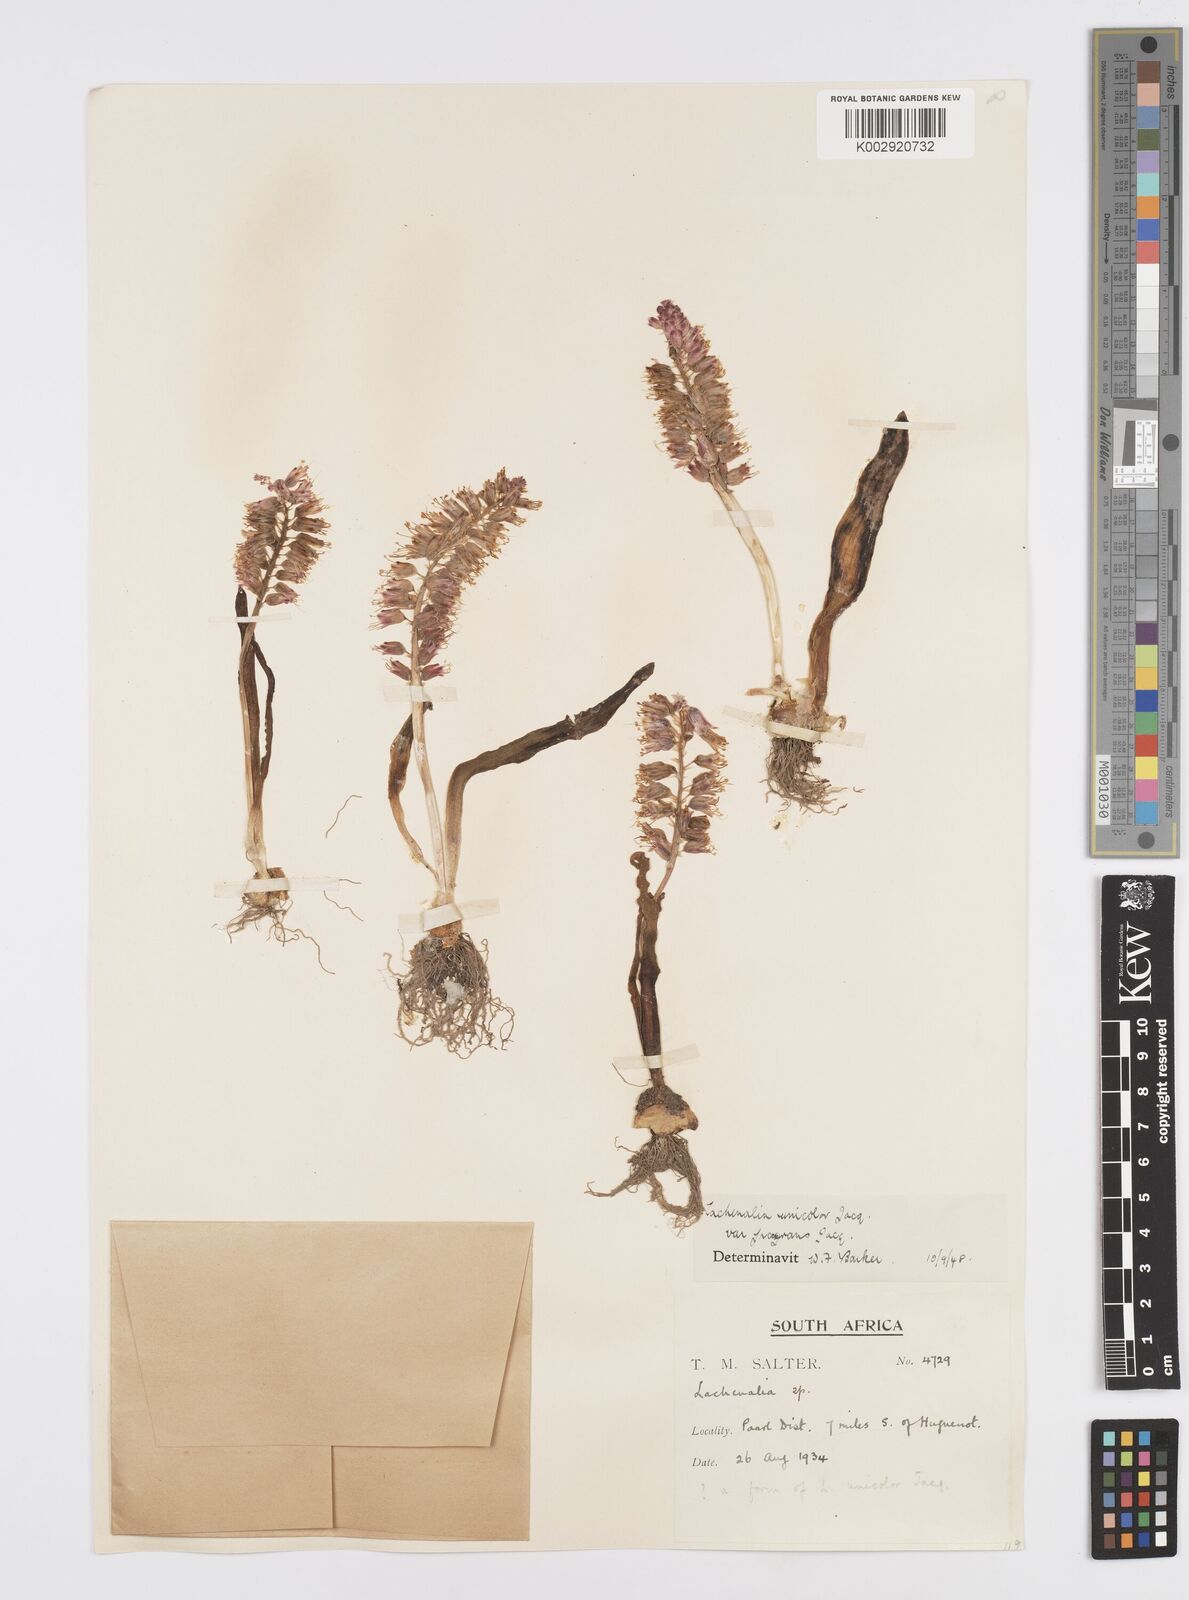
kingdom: Plantae
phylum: Tracheophyta
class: Liliopsida
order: Asparagales
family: Asparagaceae
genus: Lachenalia
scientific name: Lachenalia pallida
